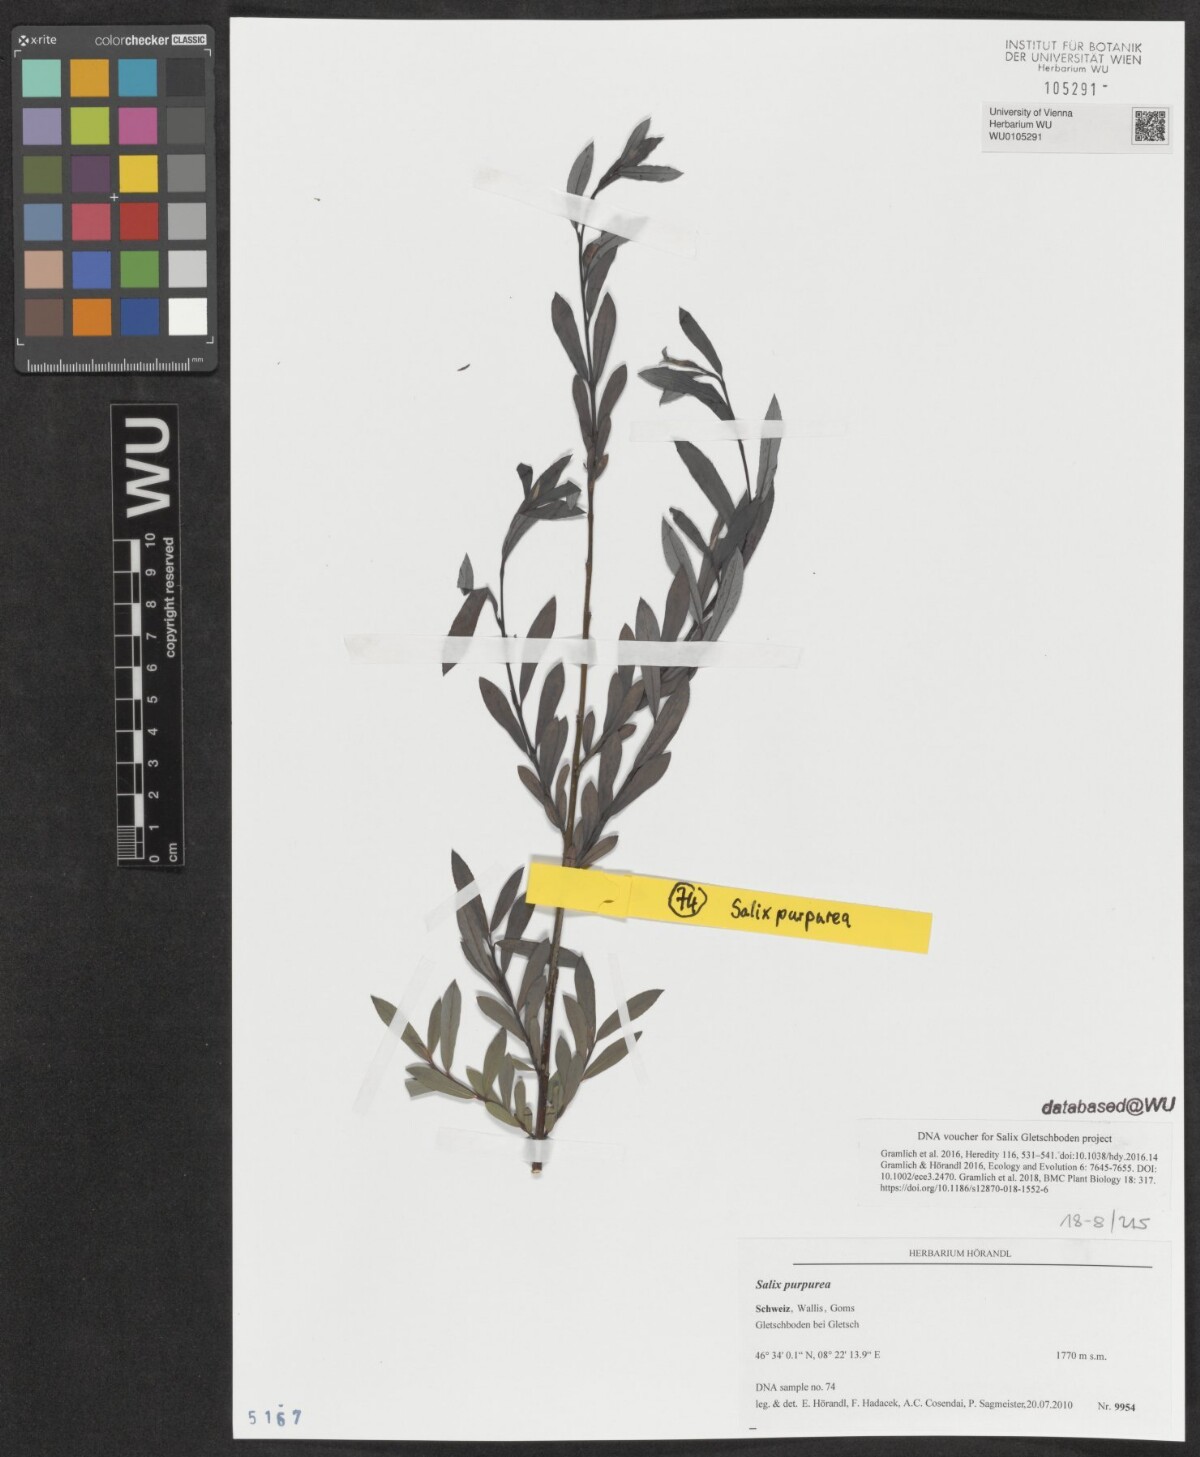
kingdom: Plantae
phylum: Tracheophyta
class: Magnoliopsida
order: Malpighiales
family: Salicaceae
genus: Salix
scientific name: Salix purpurea
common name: Purple willow
